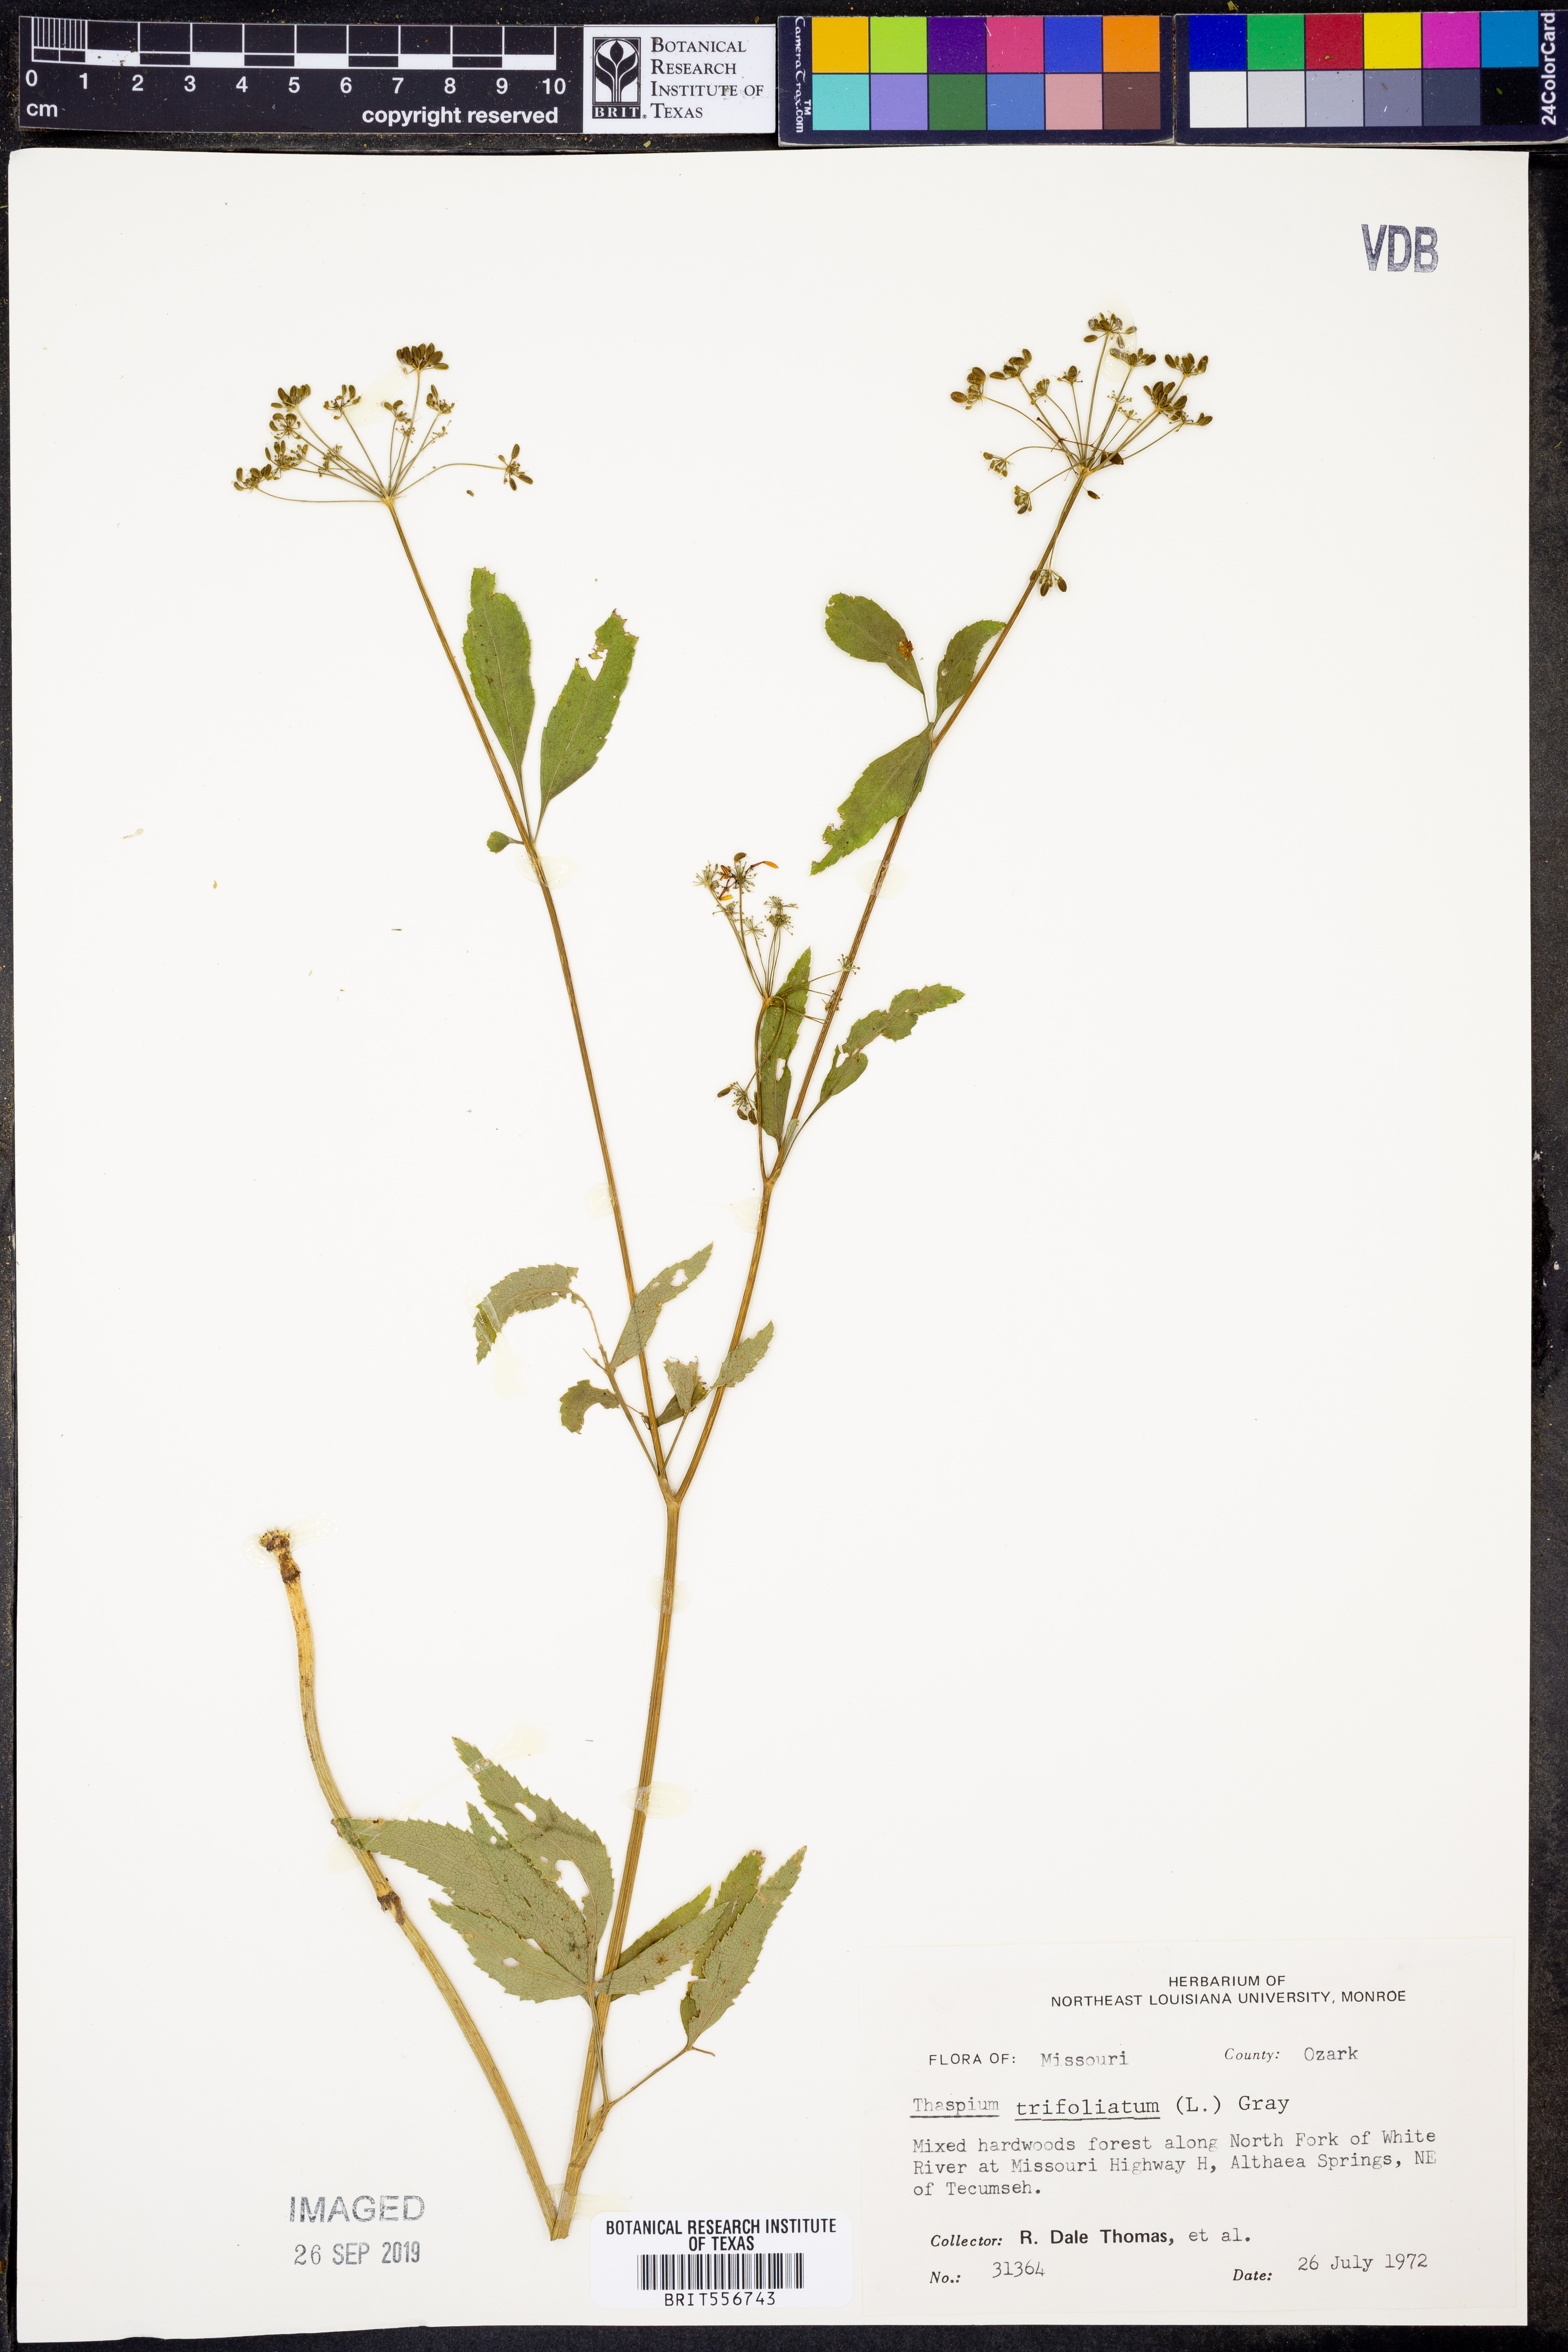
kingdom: Plantae
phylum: Tracheophyta
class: Magnoliopsida
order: Apiales
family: Apiaceae
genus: Thaspium
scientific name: Thaspium trifoliatum
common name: Purple meadow-parsnip
